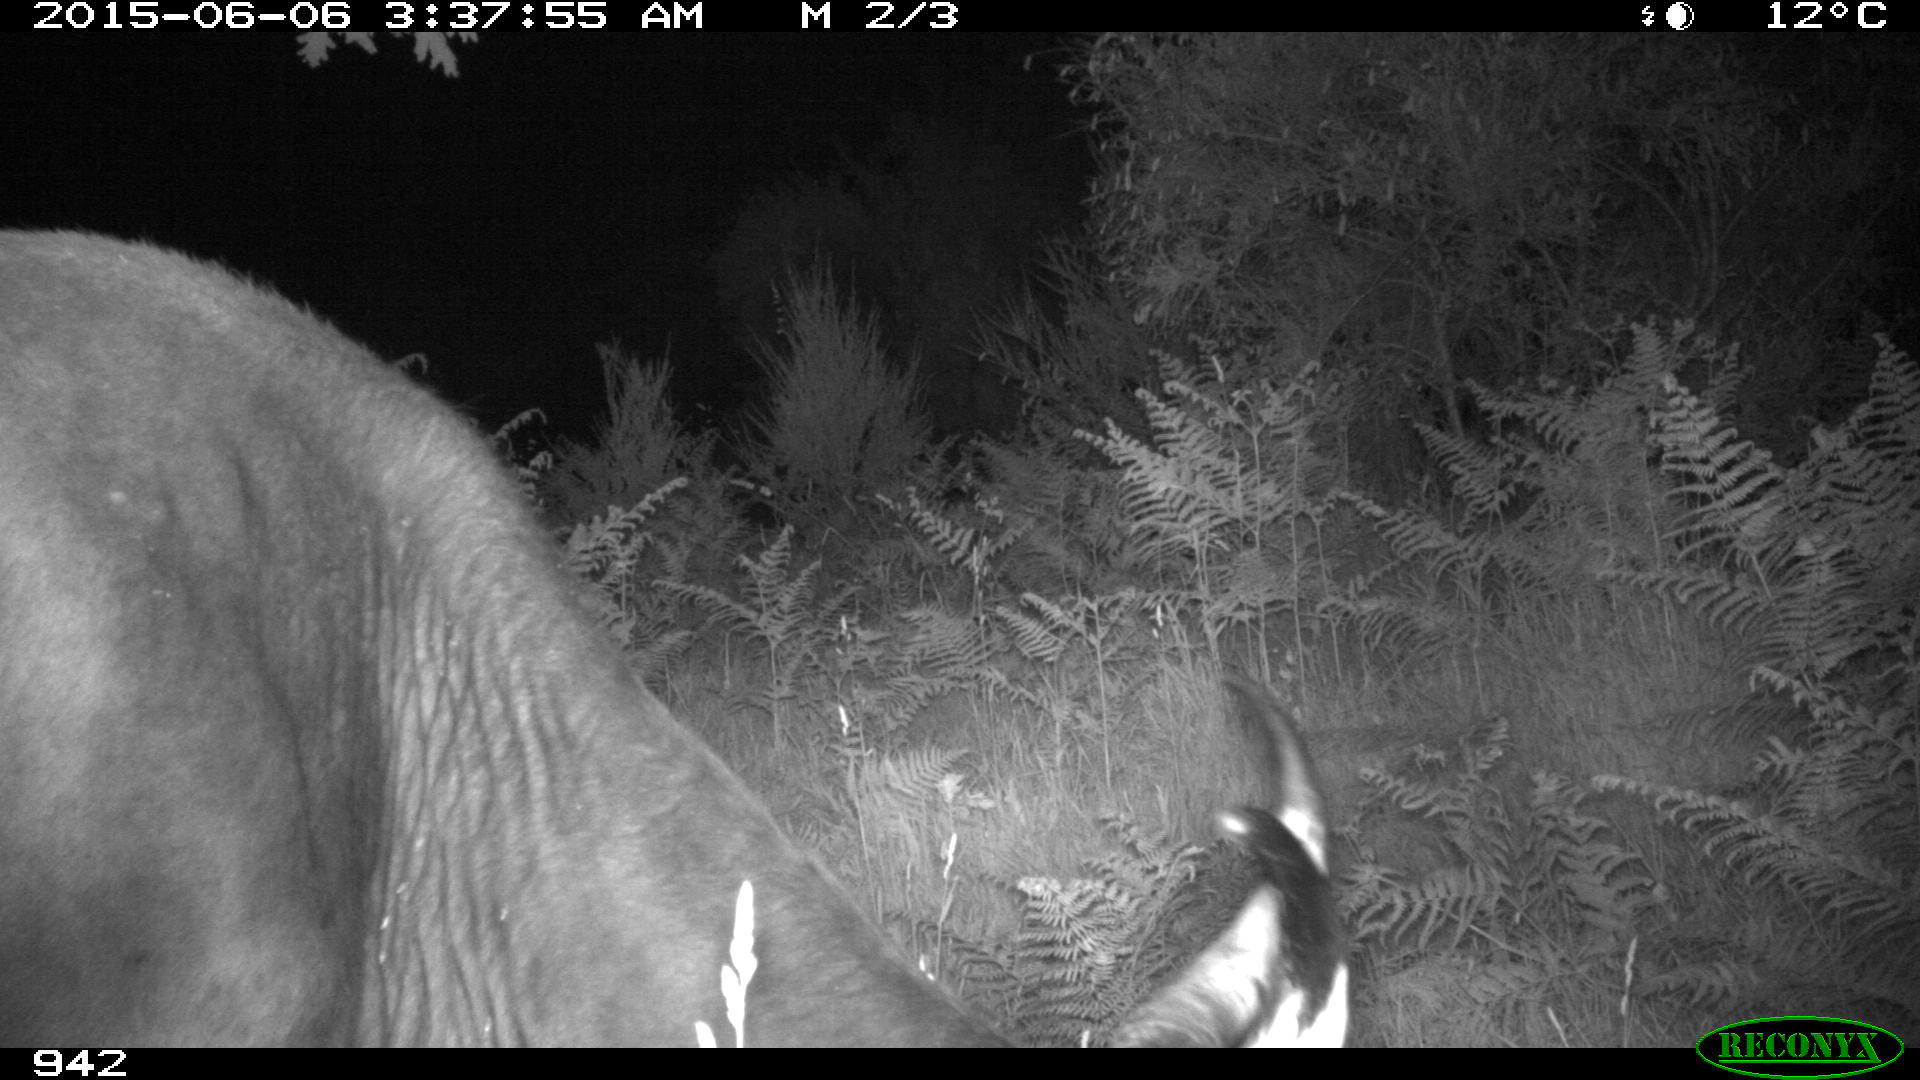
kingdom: Animalia
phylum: Chordata
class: Mammalia
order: Artiodactyla
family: Bovidae
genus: Bos
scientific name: Bos taurus
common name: Domesticated cattle
